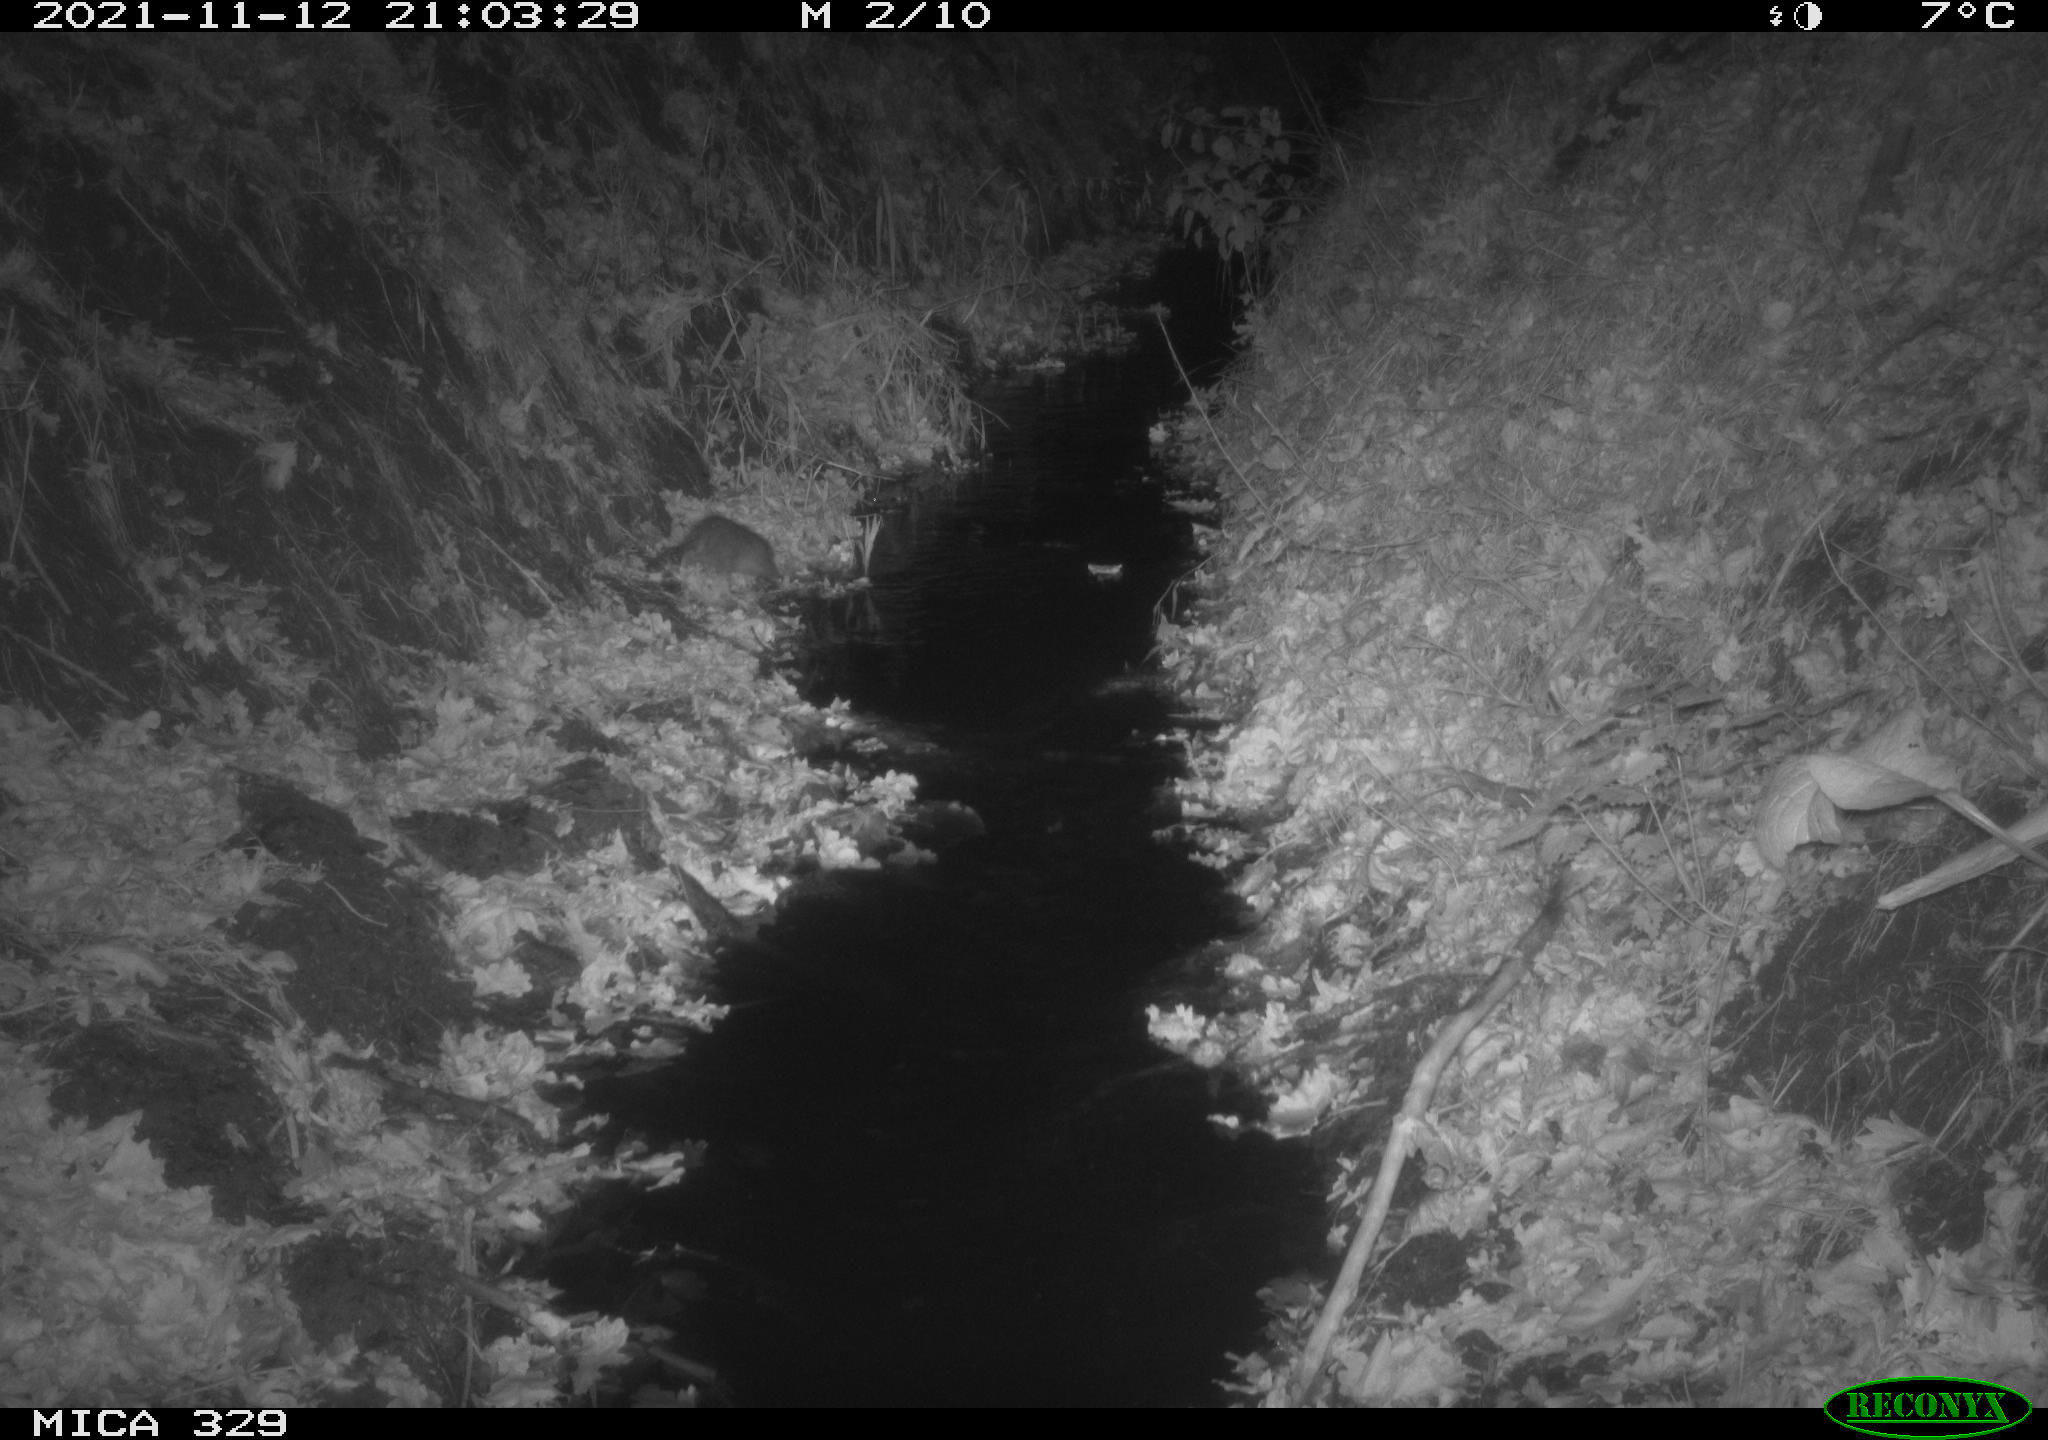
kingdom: Animalia
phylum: Chordata
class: Mammalia
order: Rodentia
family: Muridae
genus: Rattus
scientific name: Rattus norvegicus
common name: Brown rat
